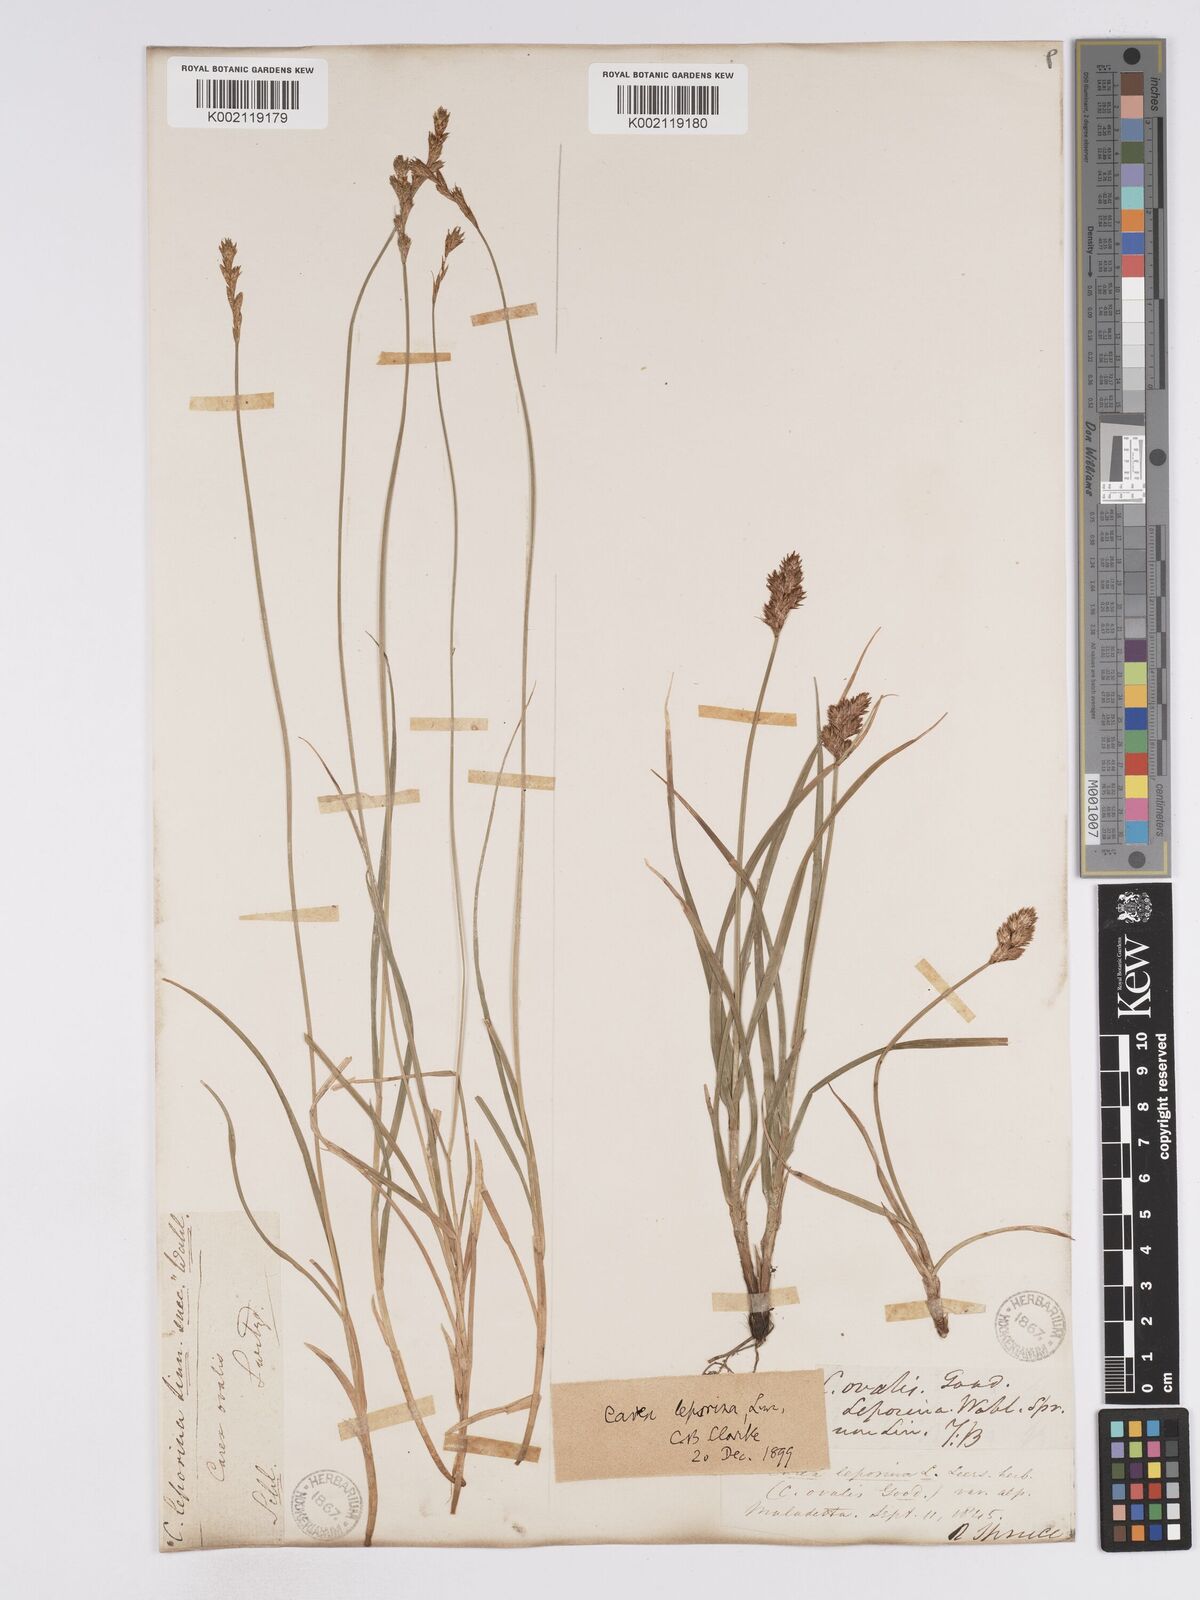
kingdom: Plantae
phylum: Tracheophyta
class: Liliopsida
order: Poales
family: Cyperaceae
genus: Carex
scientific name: Carex leporina
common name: Oval sedge
